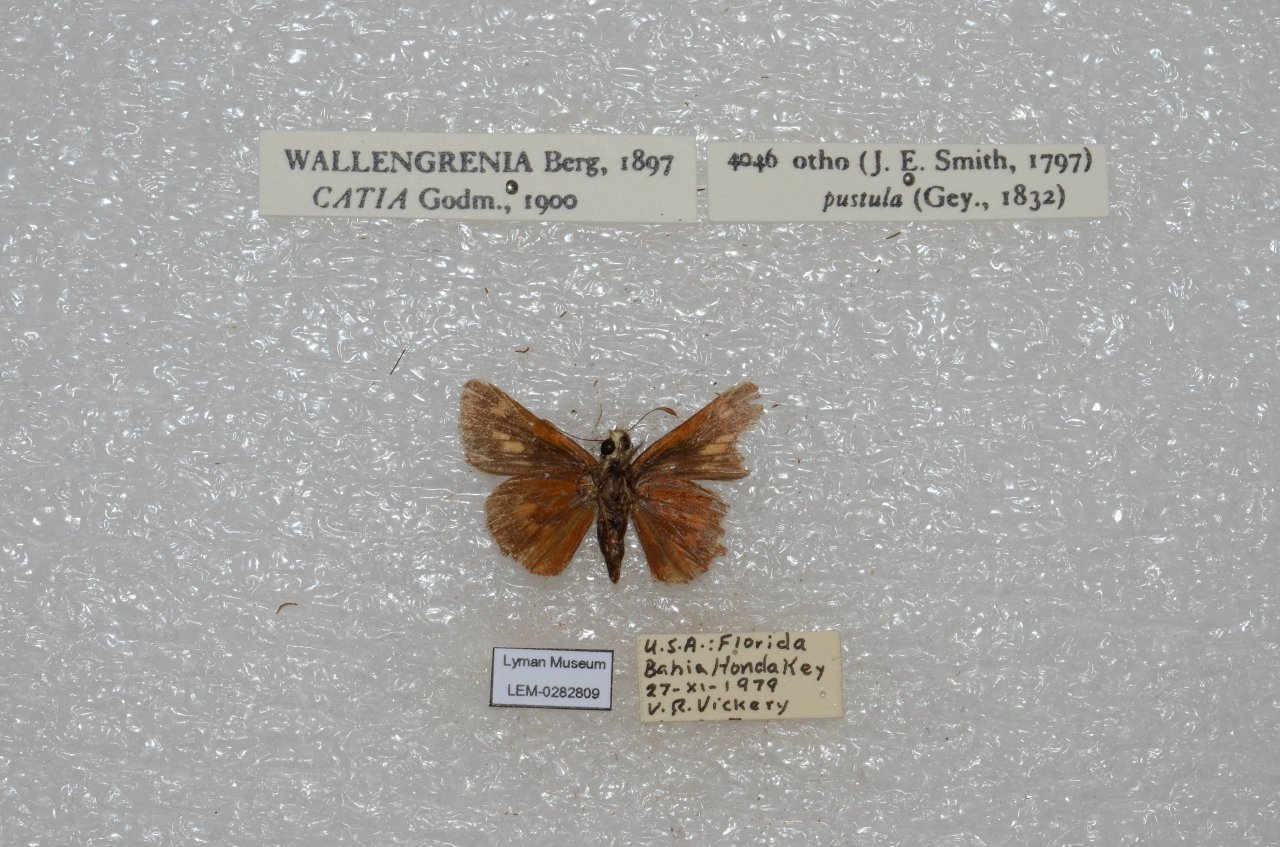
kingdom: Animalia
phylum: Arthropoda
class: Insecta
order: Lepidoptera
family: Hesperiidae
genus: Wallengrenia
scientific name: Wallengrenia otho
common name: Southern Broken-Dash
